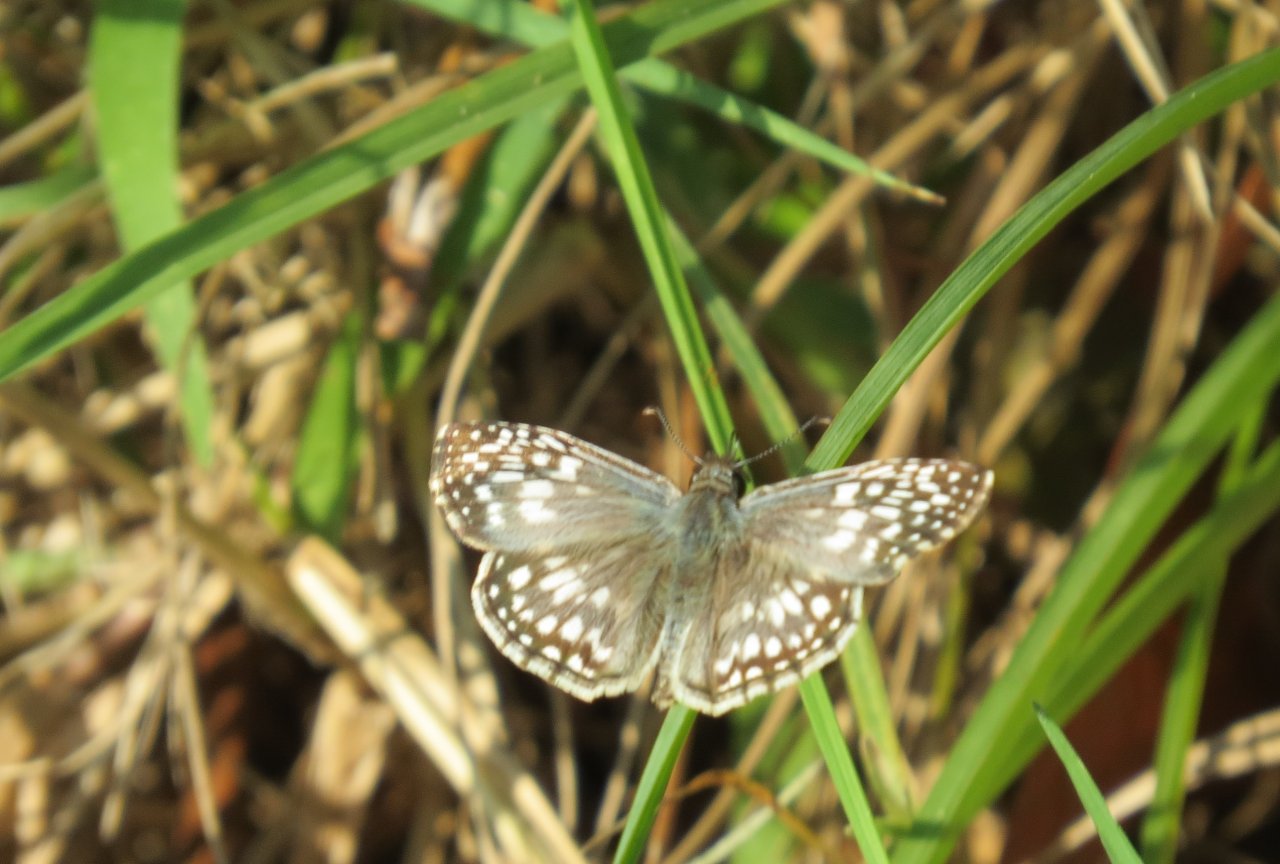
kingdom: Animalia
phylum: Arthropoda
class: Insecta
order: Lepidoptera
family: Hesperiidae
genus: Pyrgus
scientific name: Pyrgus oileus
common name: Tropical Checkered-Skipper
